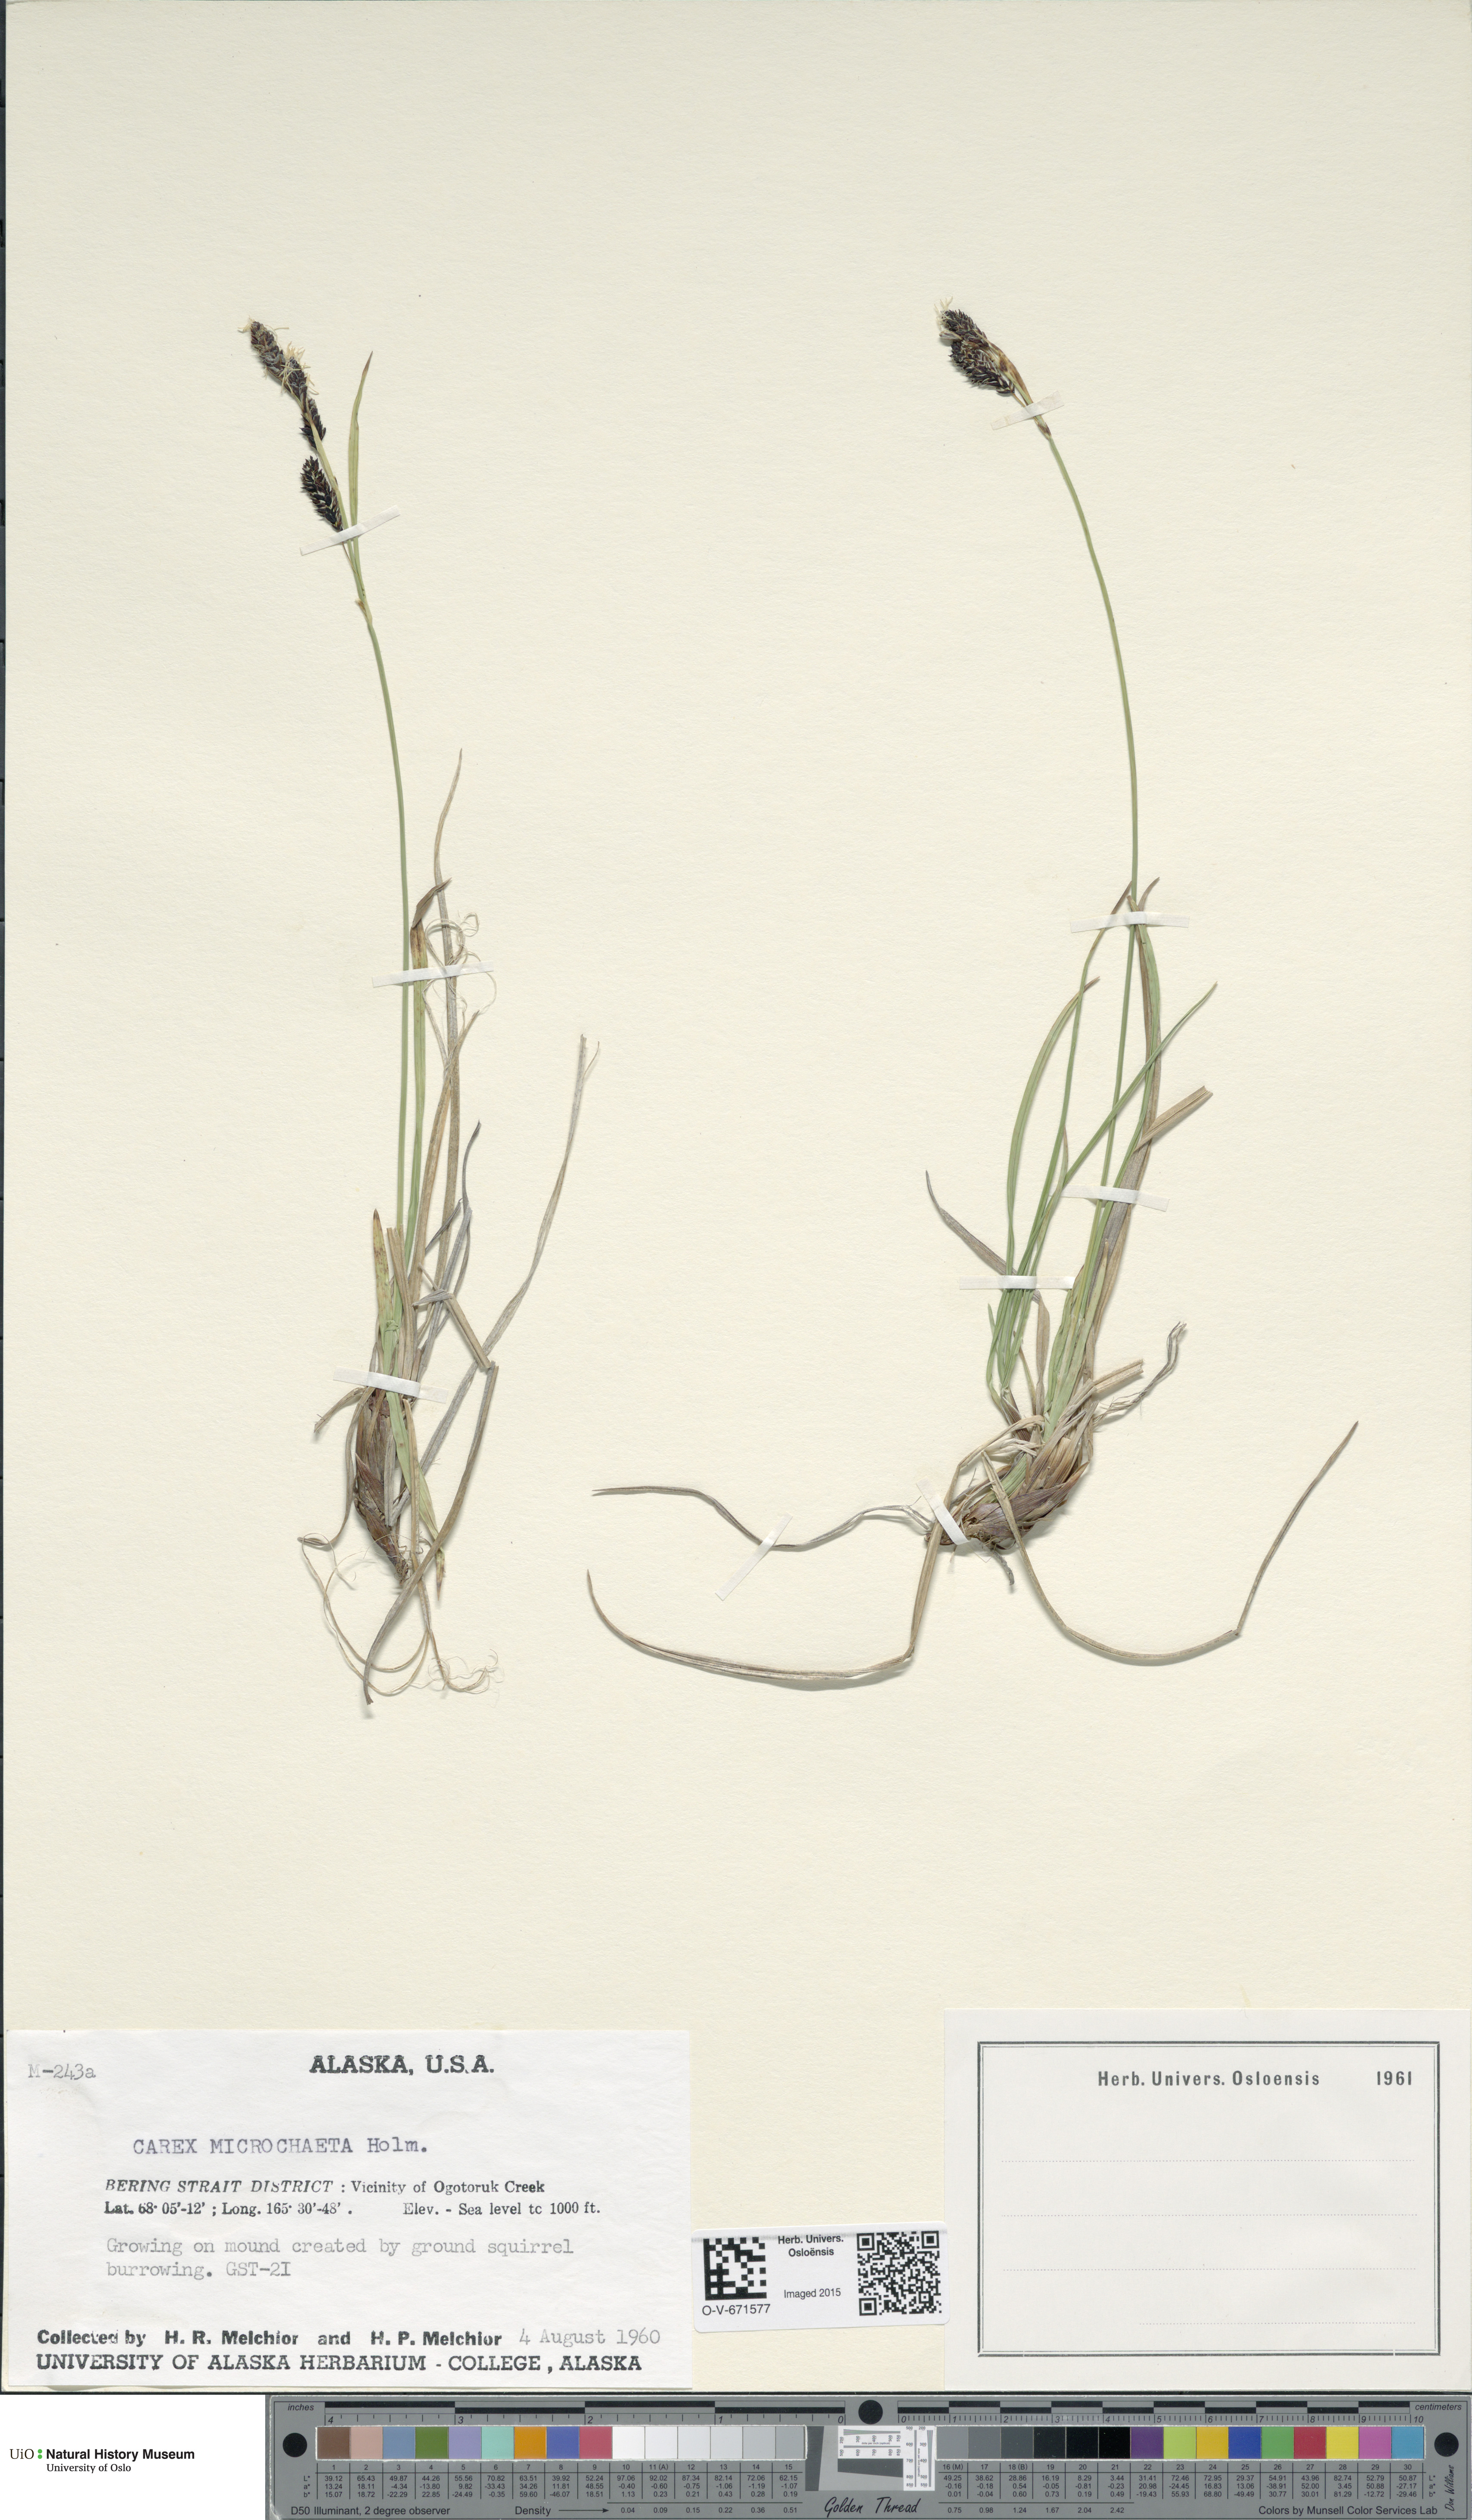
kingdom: Plantae
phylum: Tracheophyta
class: Liliopsida
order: Poales
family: Cyperaceae
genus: Carex
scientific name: Carex microchaeta
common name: Bering sea sedge
